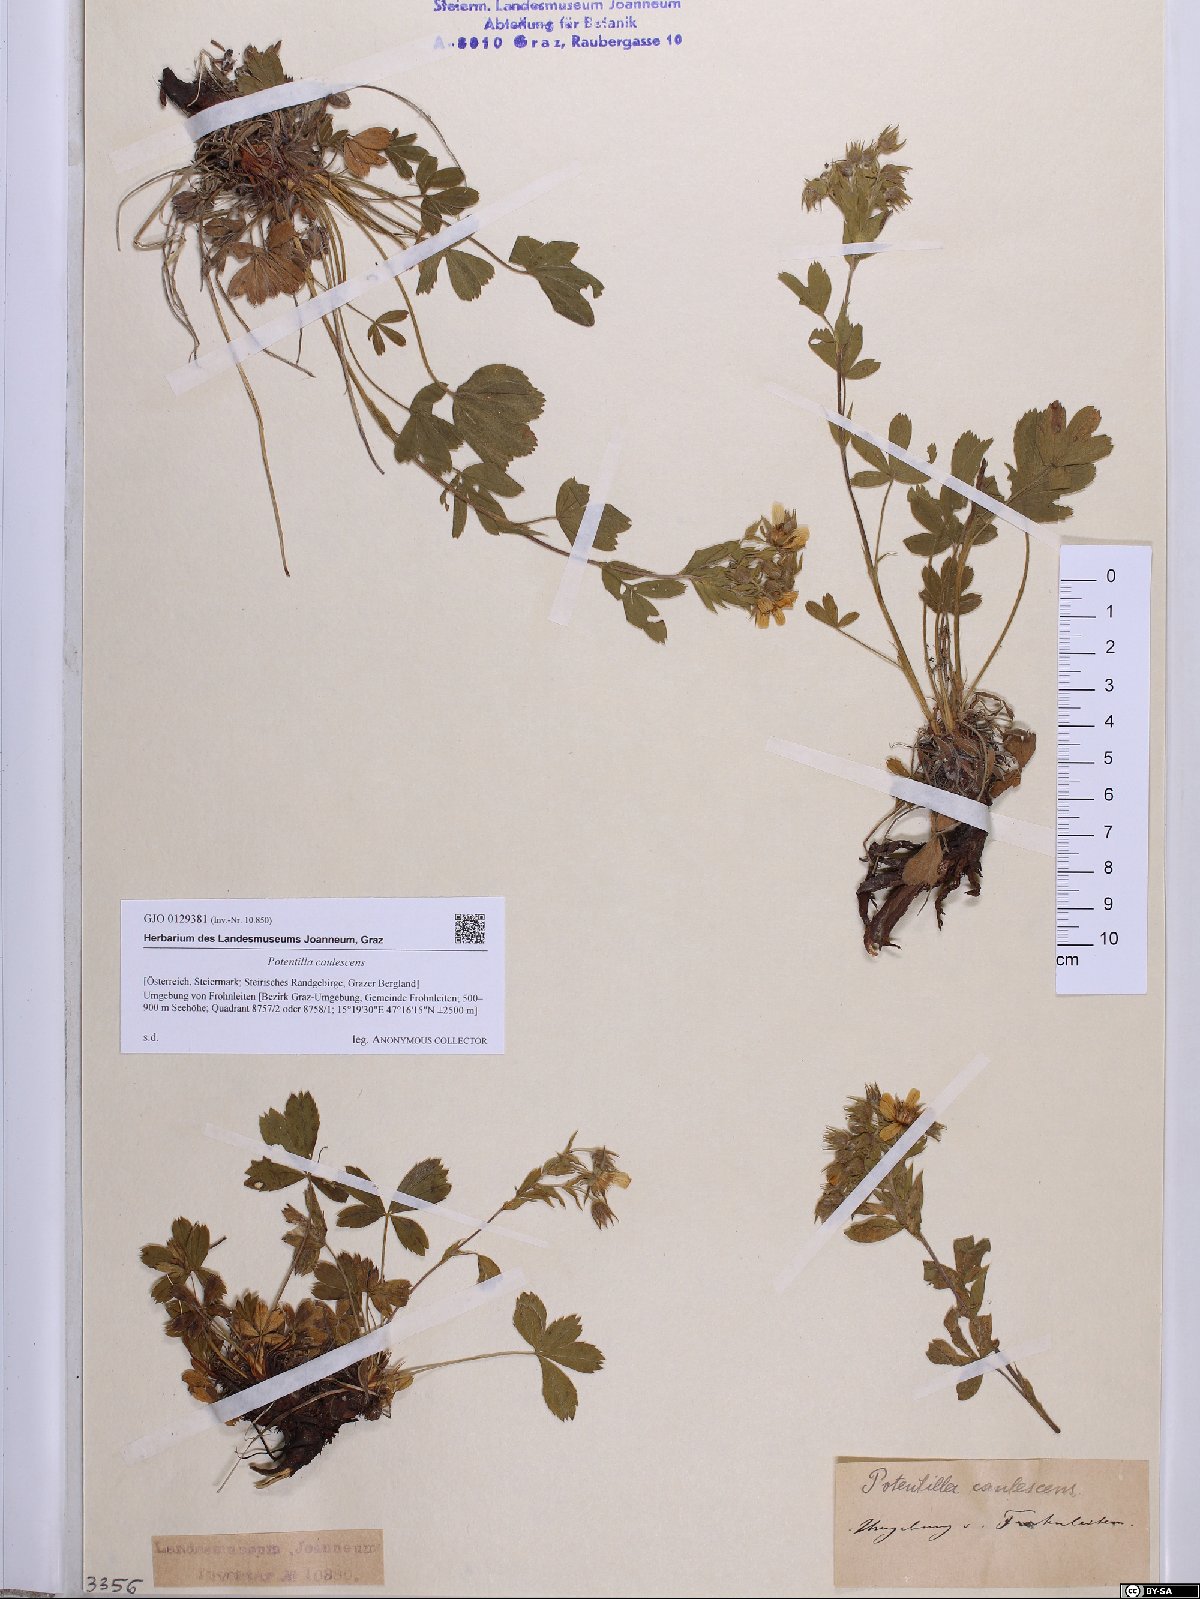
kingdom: Plantae
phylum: Tracheophyta
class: Magnoliopsida
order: Rosales
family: Rosaceae
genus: Potentilla
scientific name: Potentilla caulescens
